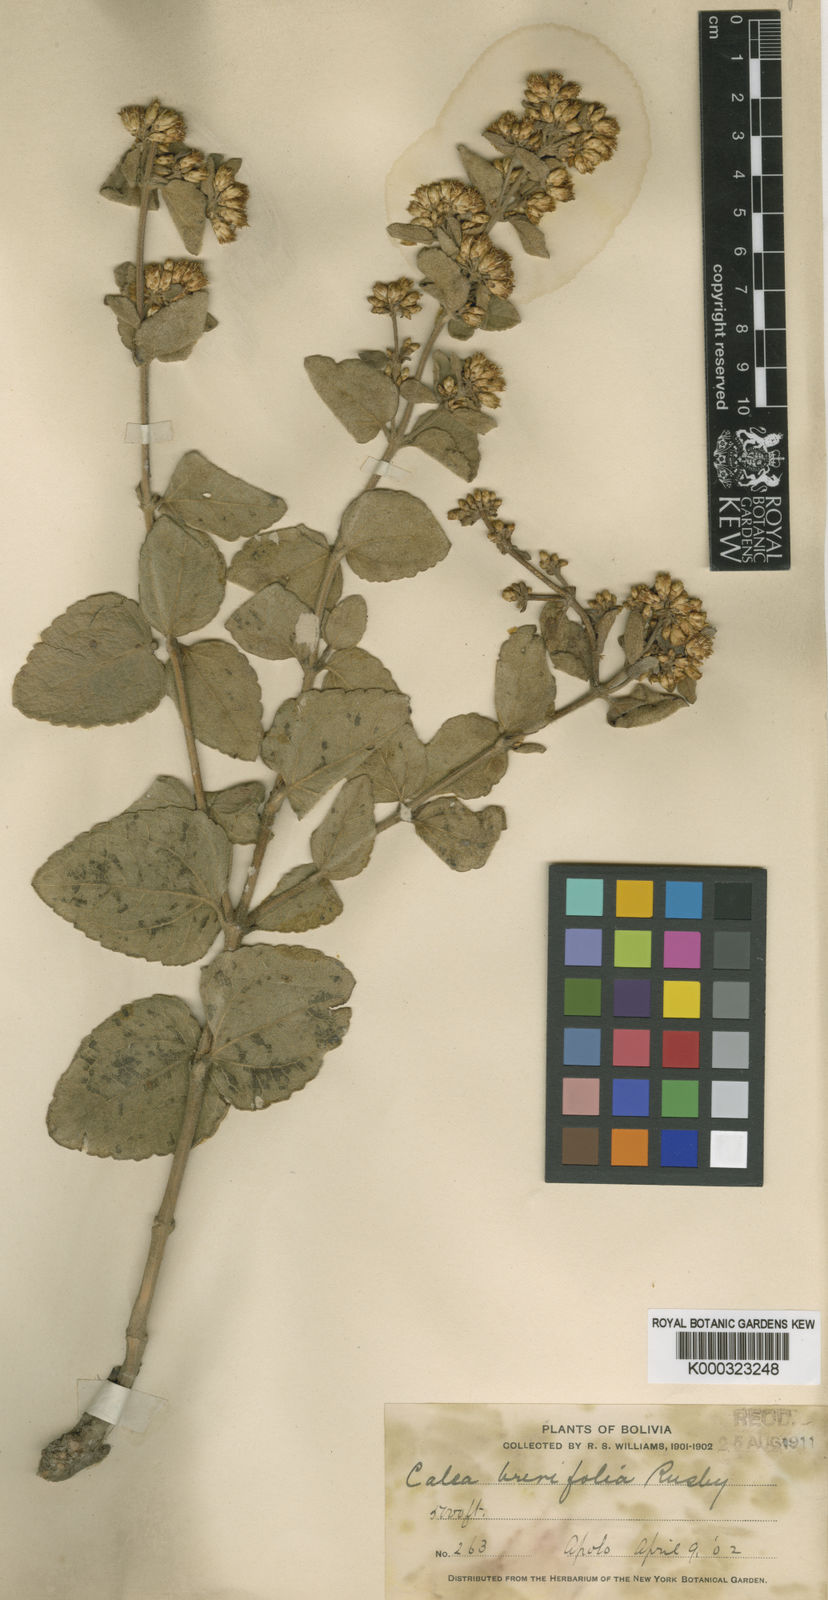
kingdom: Plantae
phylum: Tracheophyta
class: Magnoliopsida
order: Asterales
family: Asteraceae
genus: Calea
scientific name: Calea lantanoides
